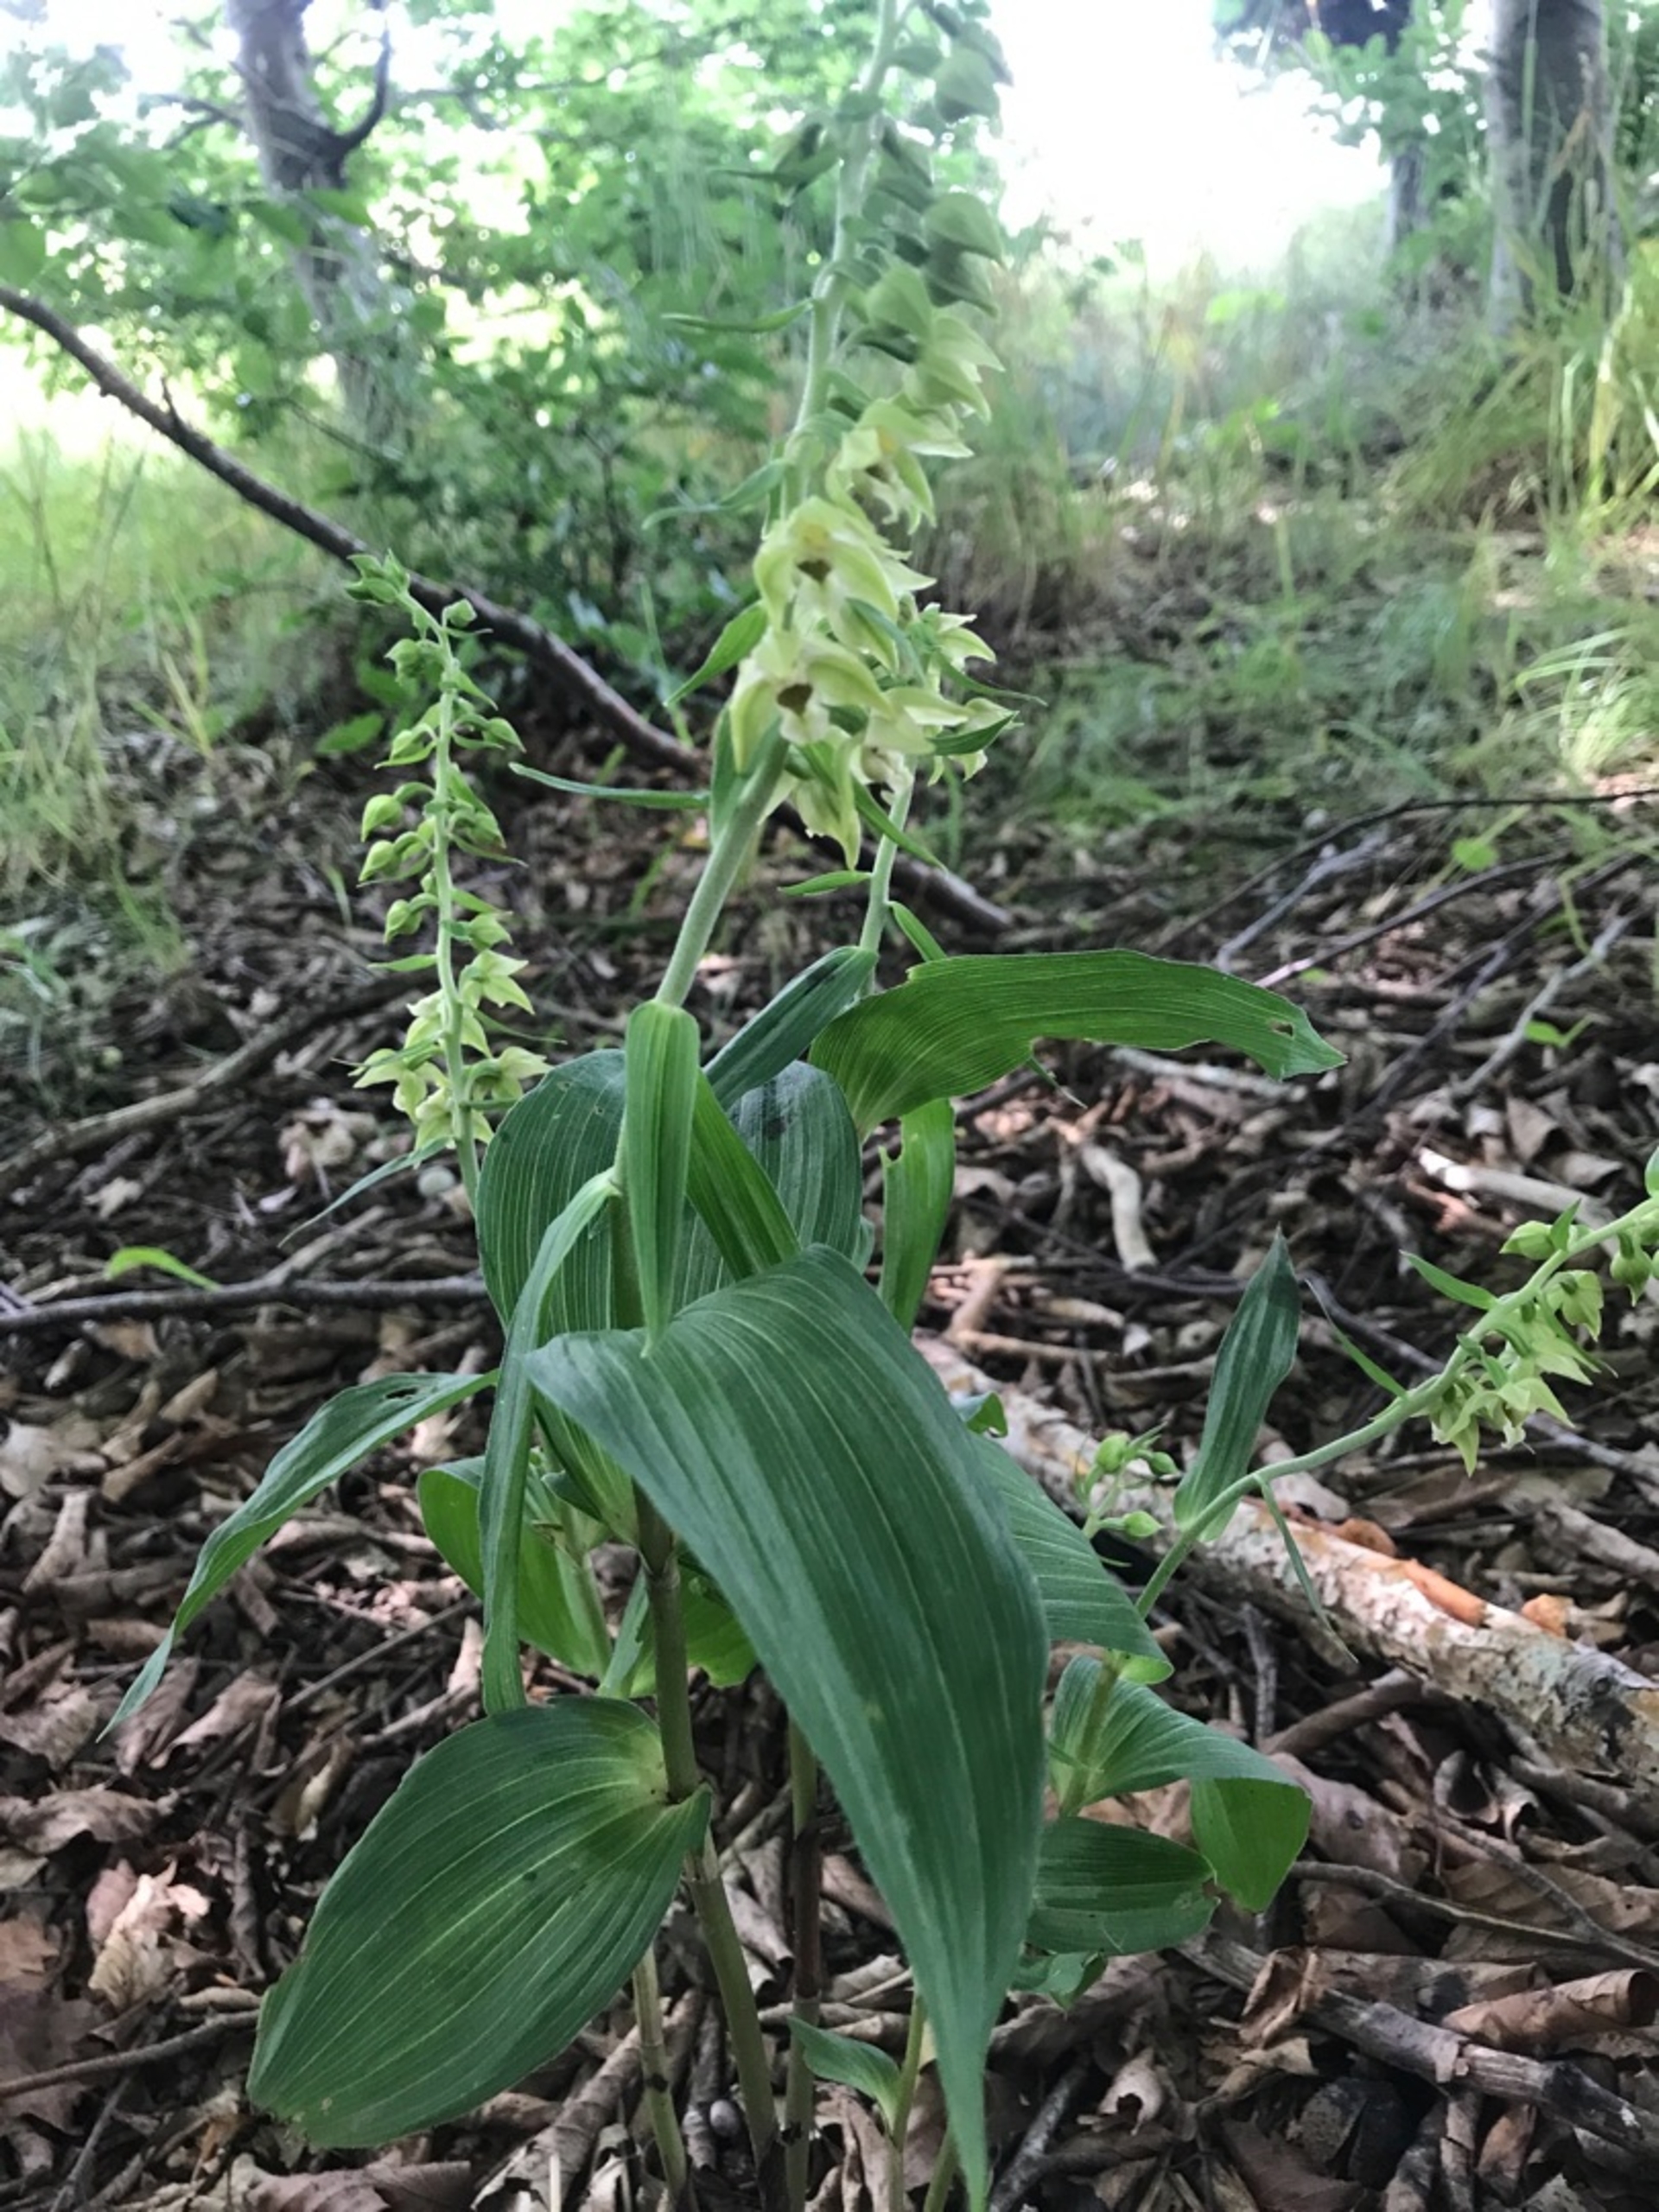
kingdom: Plantae
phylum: Tracheophyta
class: Liliopsida
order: Asparagales
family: Orchidaceae
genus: Epipactis
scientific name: Epipactis helleborine
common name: Skov-hullæbe
